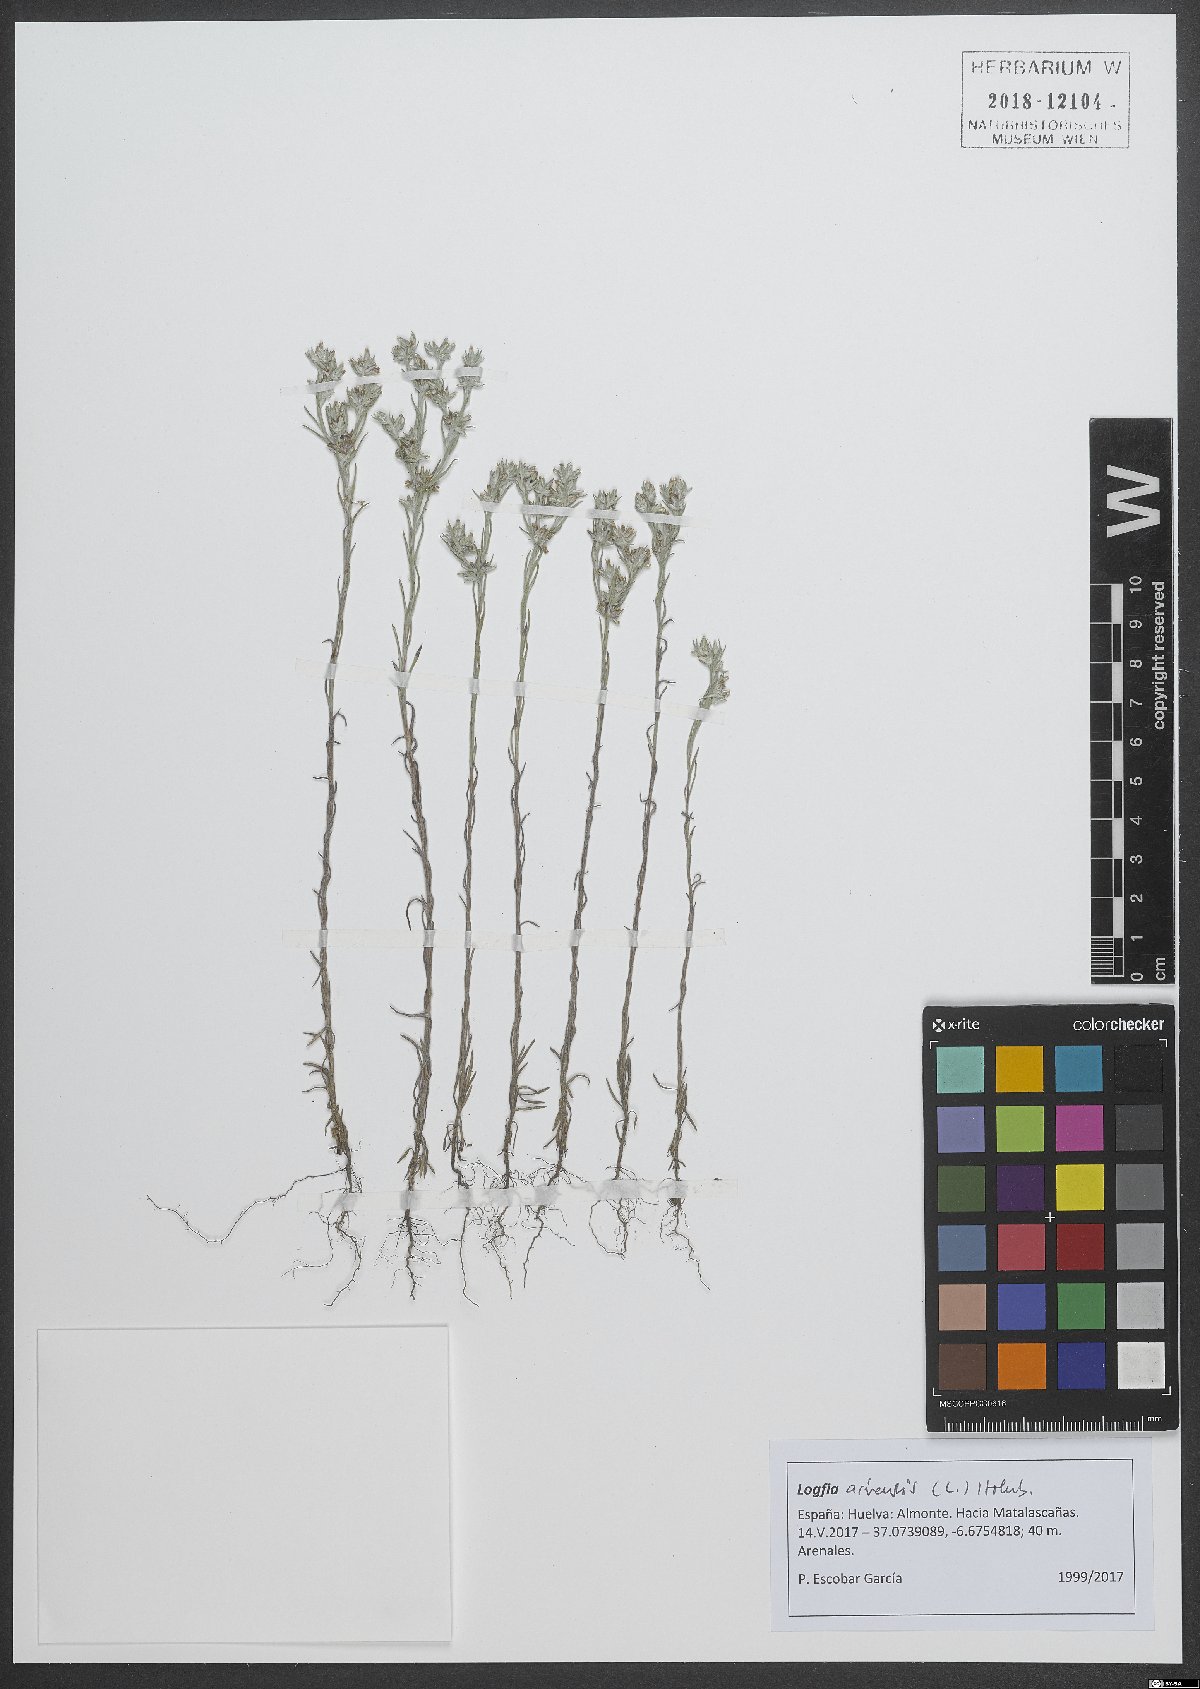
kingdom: Plantae
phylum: Tracheophyta
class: Magnoliopsida
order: Asterales
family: Asteraceae
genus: Filago
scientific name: Filago arvensis
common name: Field cudweed
